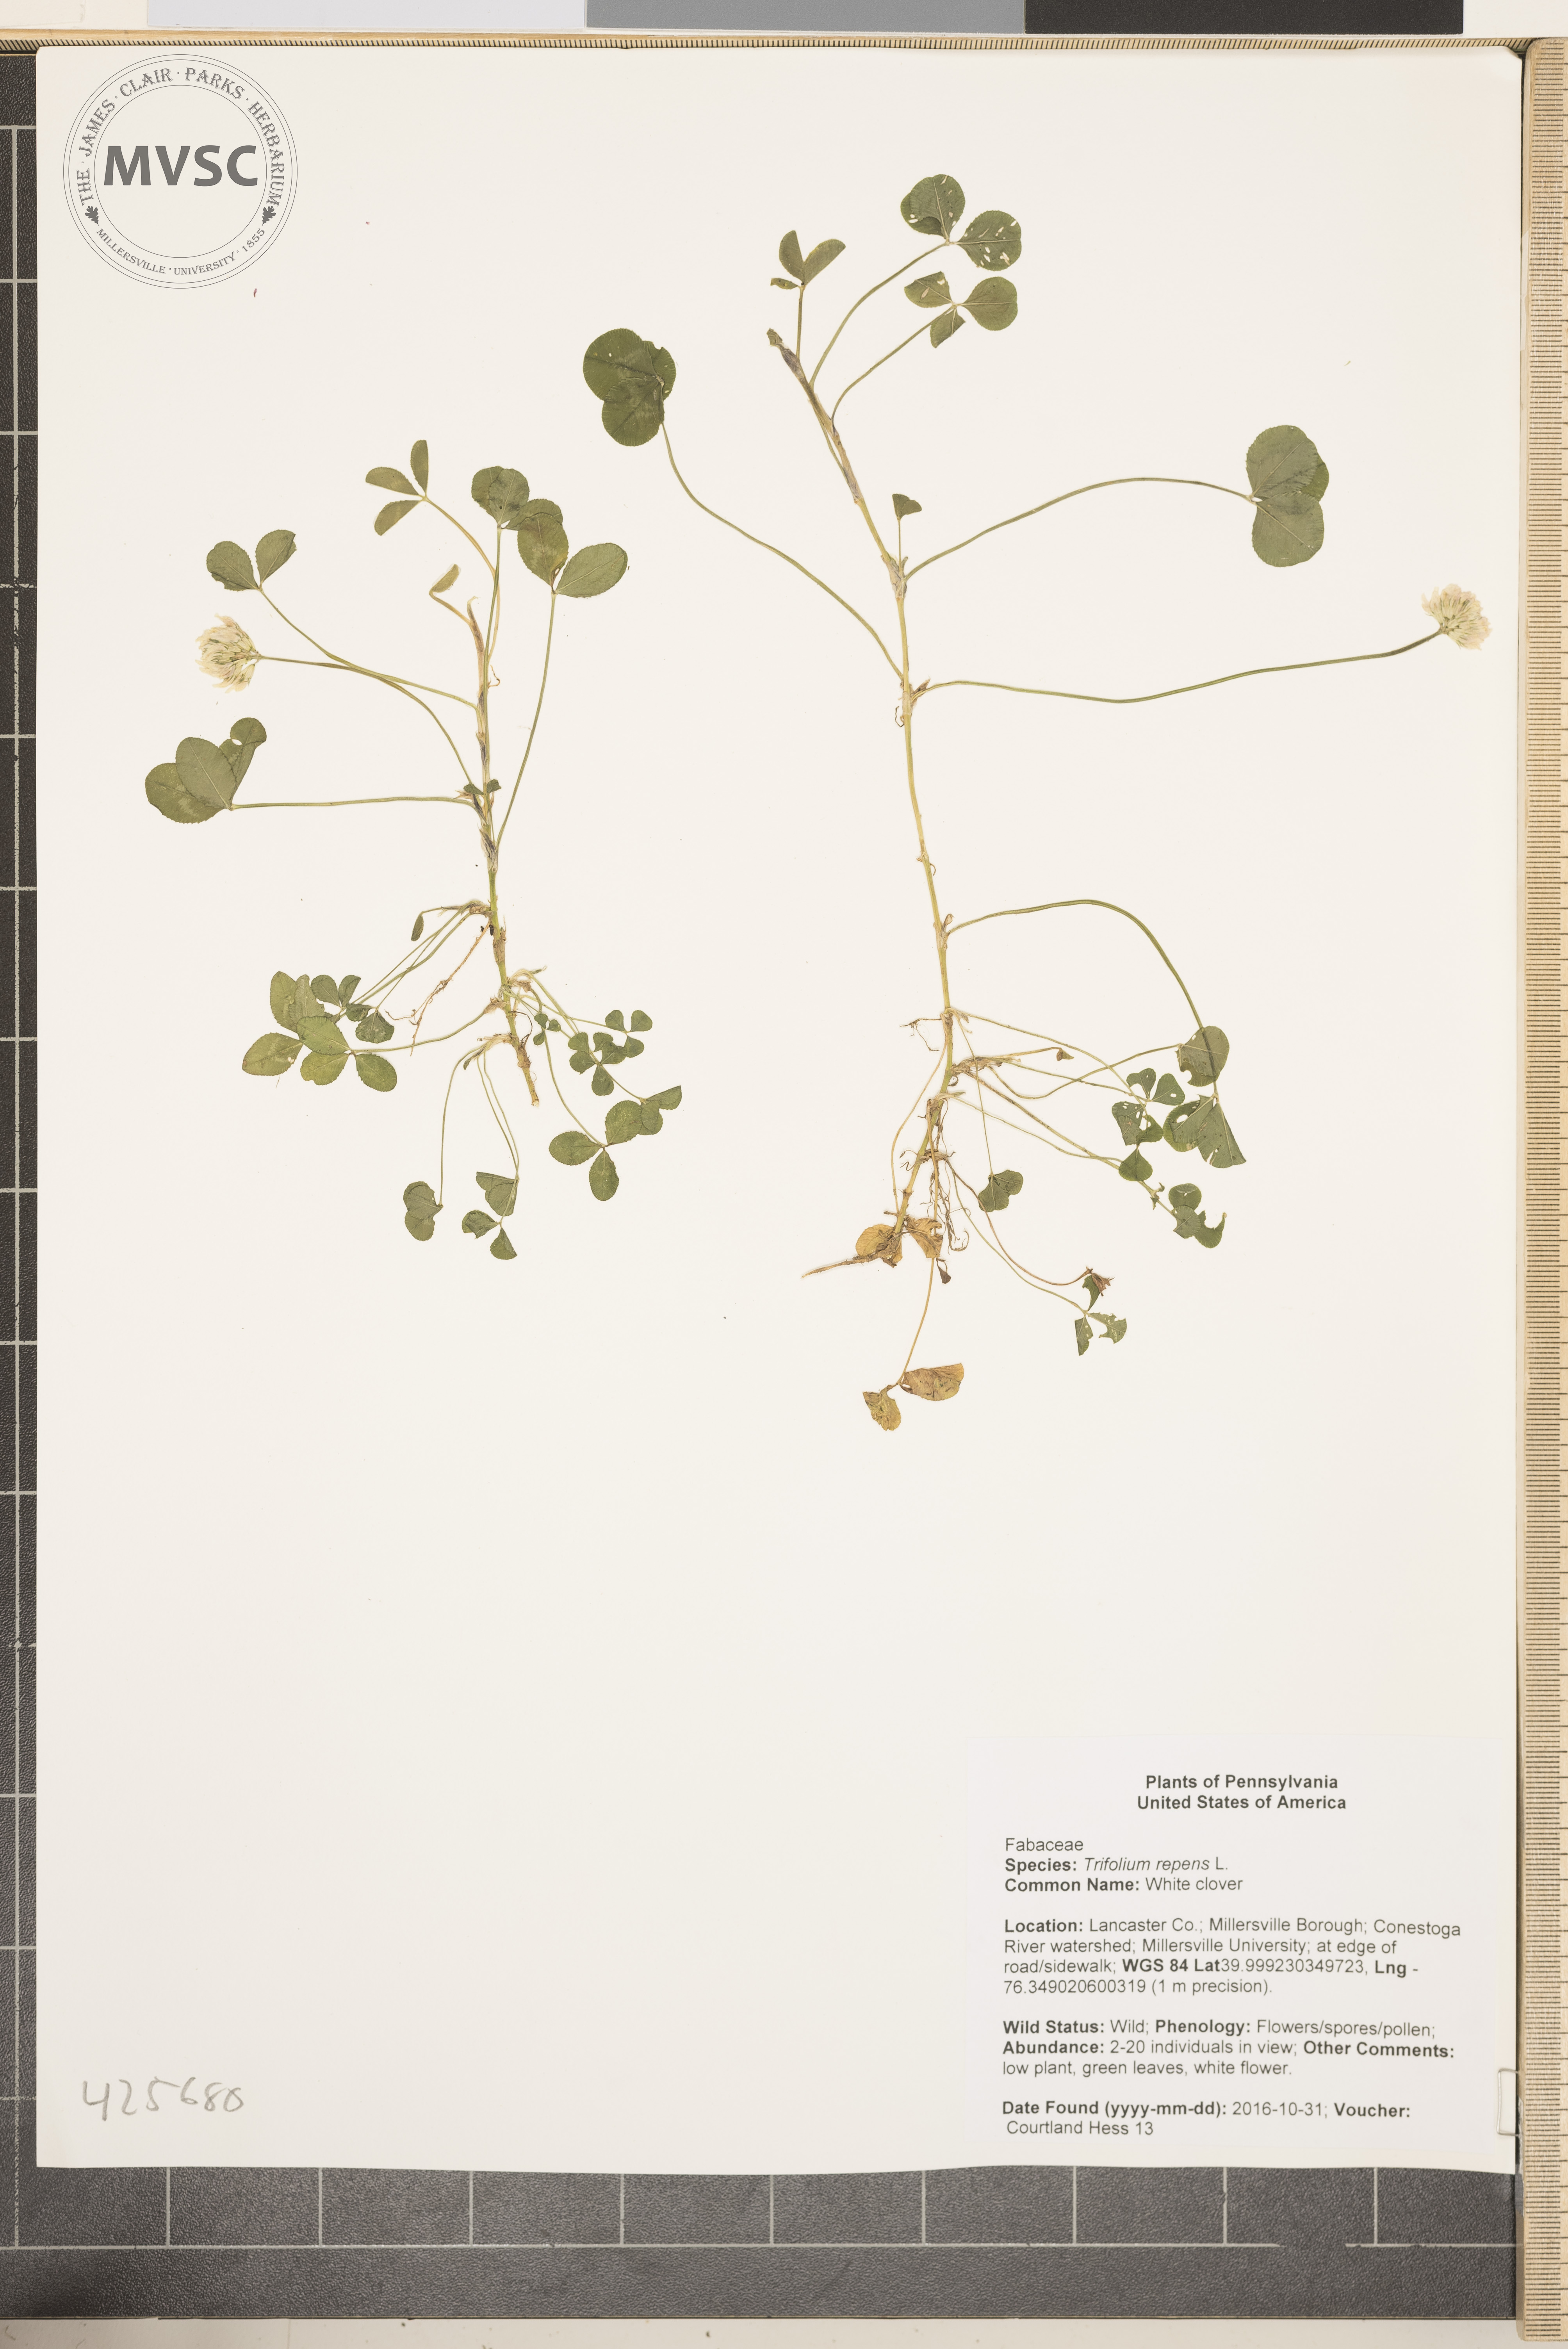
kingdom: Plantae
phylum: Tracheophyta
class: Magnoliopsida
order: Fabales
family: Fabaceae
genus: Trifolium
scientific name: Trifolium repens
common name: White clover
